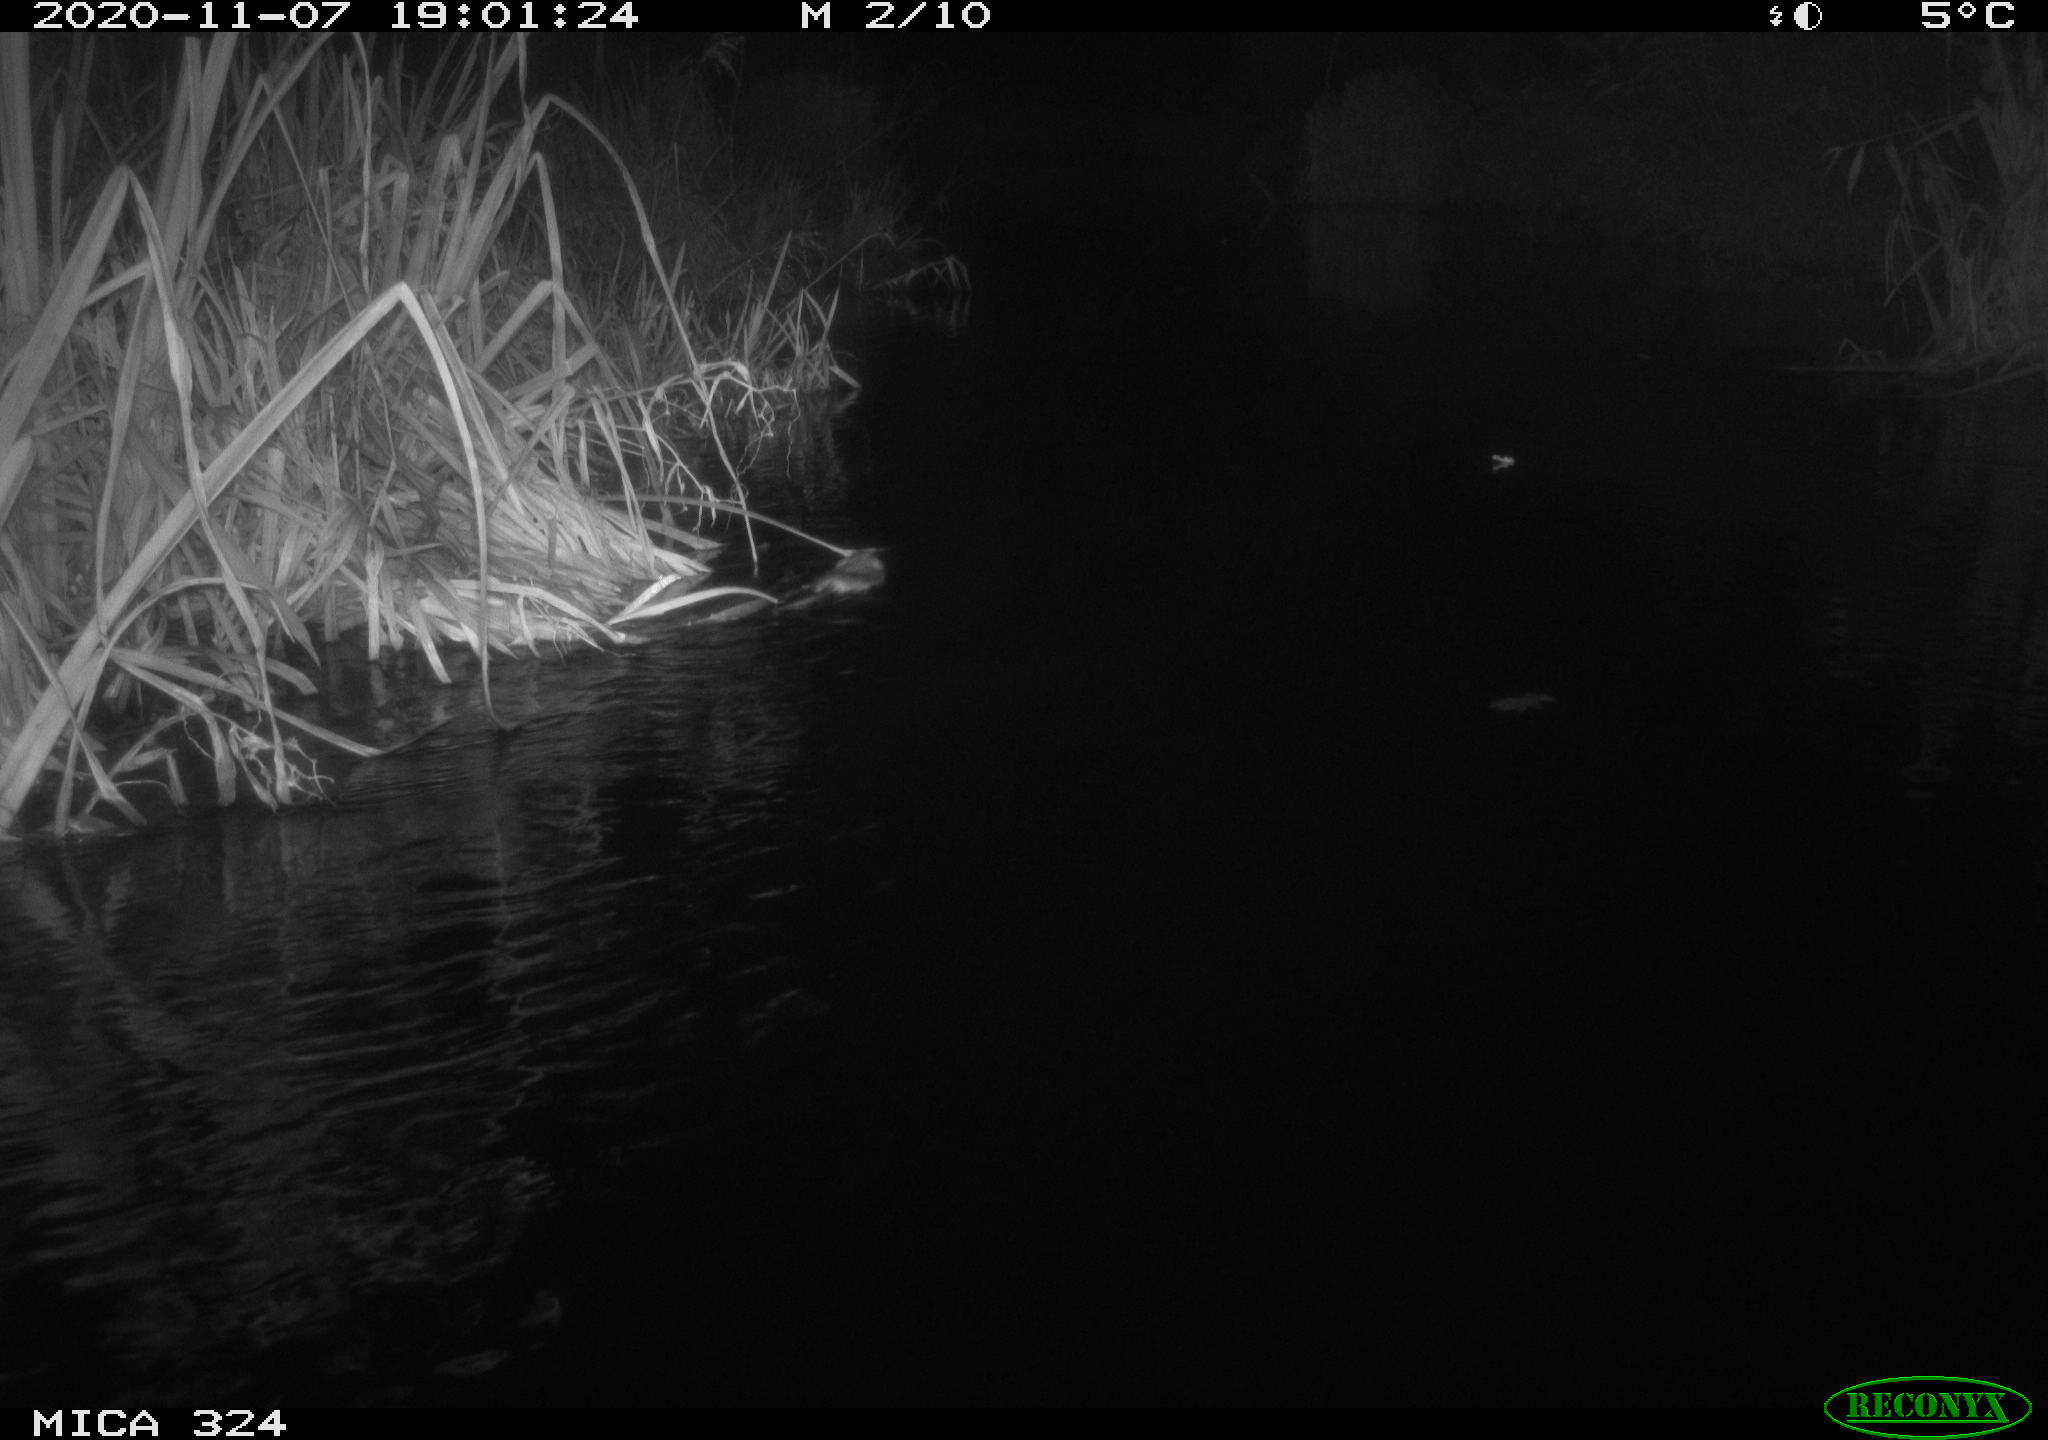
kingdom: Animalia
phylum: Chordata
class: Mammalia
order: Rodentia
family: Cricetidae
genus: Ondatra
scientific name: Ondatra zibethicus
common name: Muskrat
